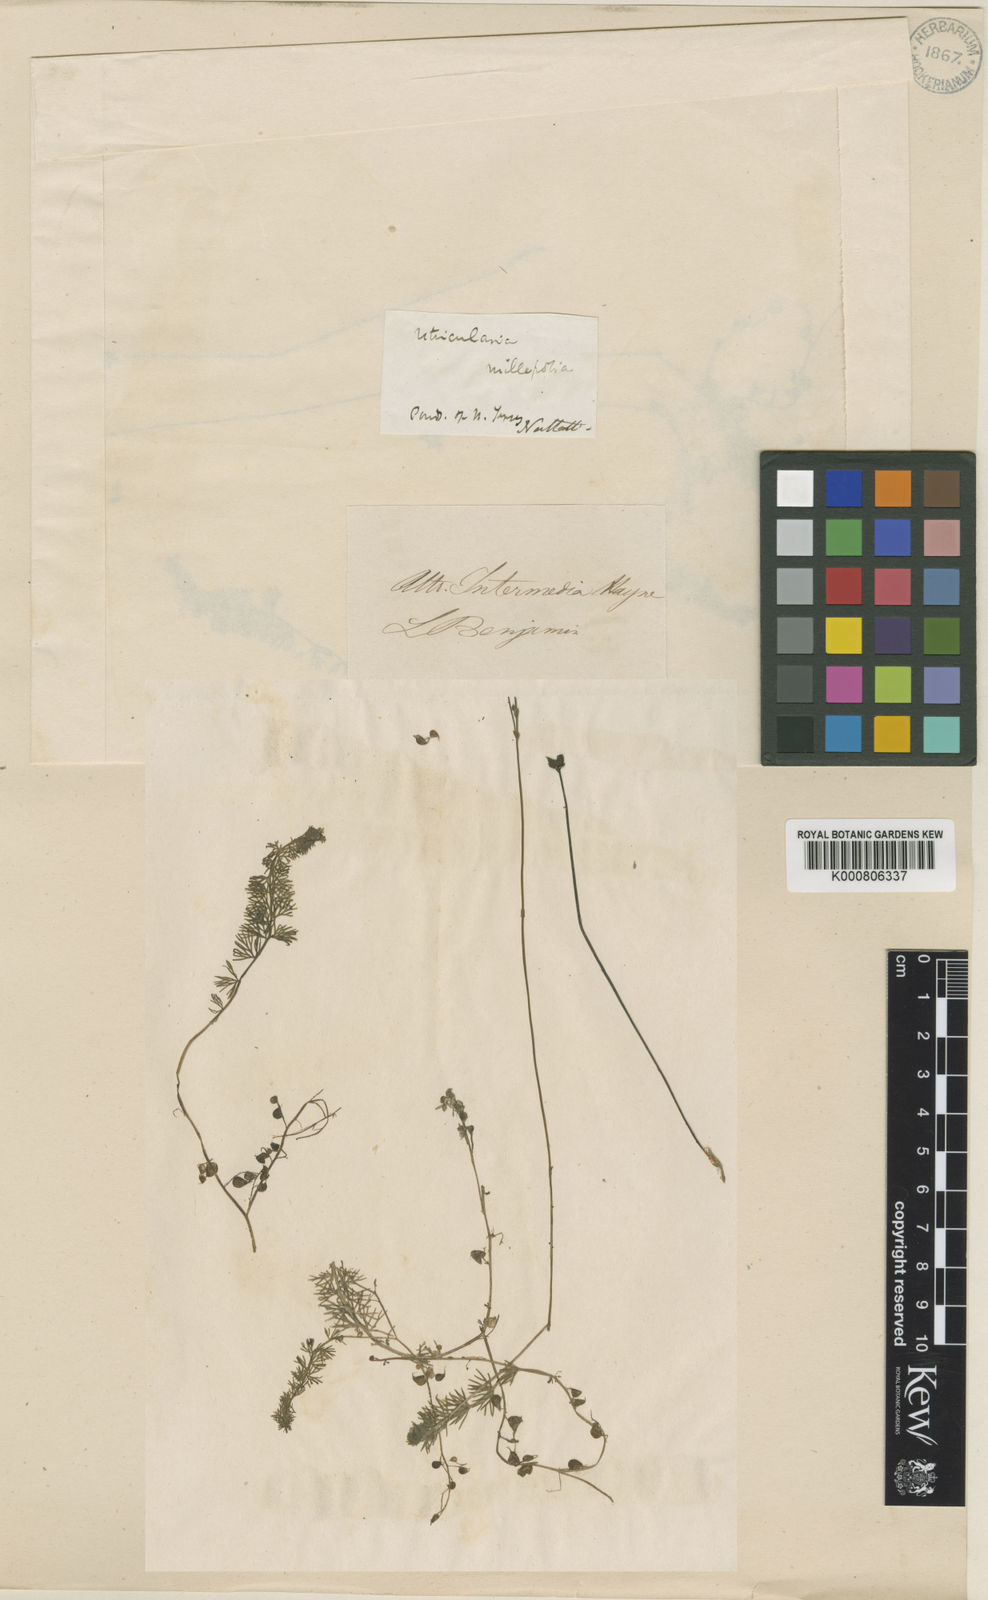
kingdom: Plantae
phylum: Tracheophyta
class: Magnoliopsida
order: Lamiales
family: Lentibulariaceae
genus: Utricularia
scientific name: Utricularia intermedia
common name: Intermediate bladderwort
